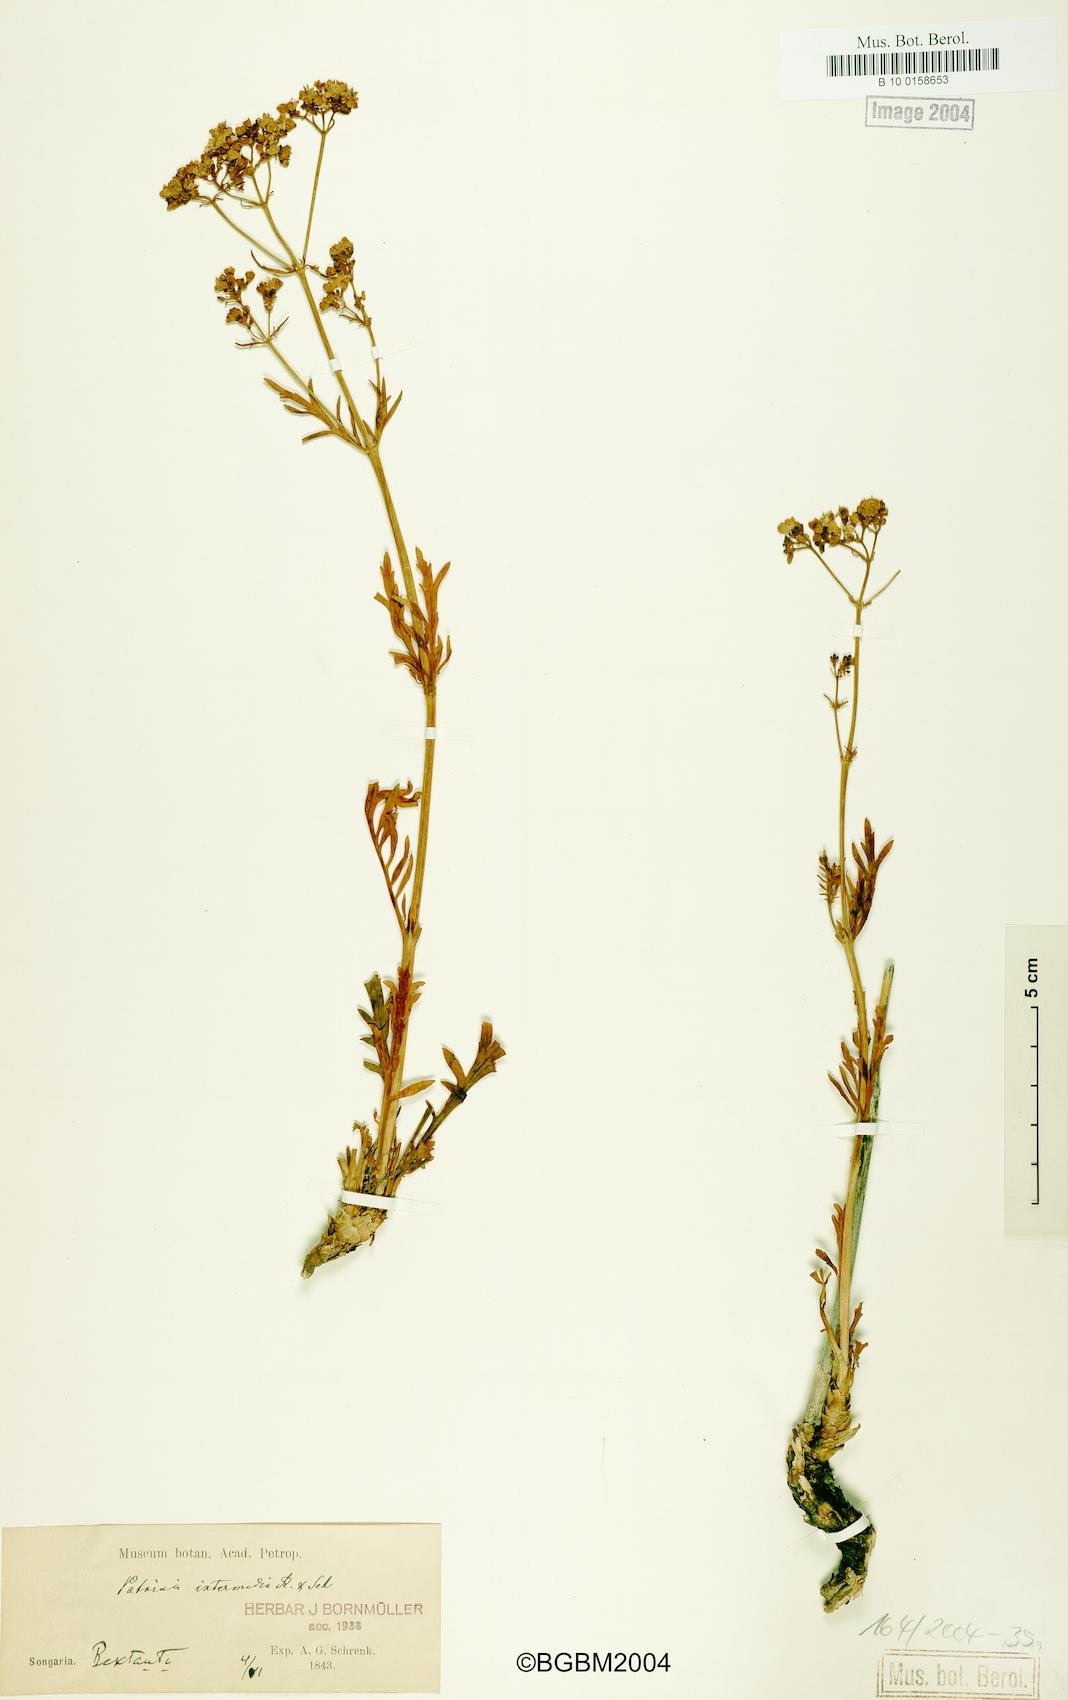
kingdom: Plantae
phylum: Tracheophyta
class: Magnoliopsida
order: Dipsacales
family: Caprifoliaceae
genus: Patrinia
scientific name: Patrinia intermedia
